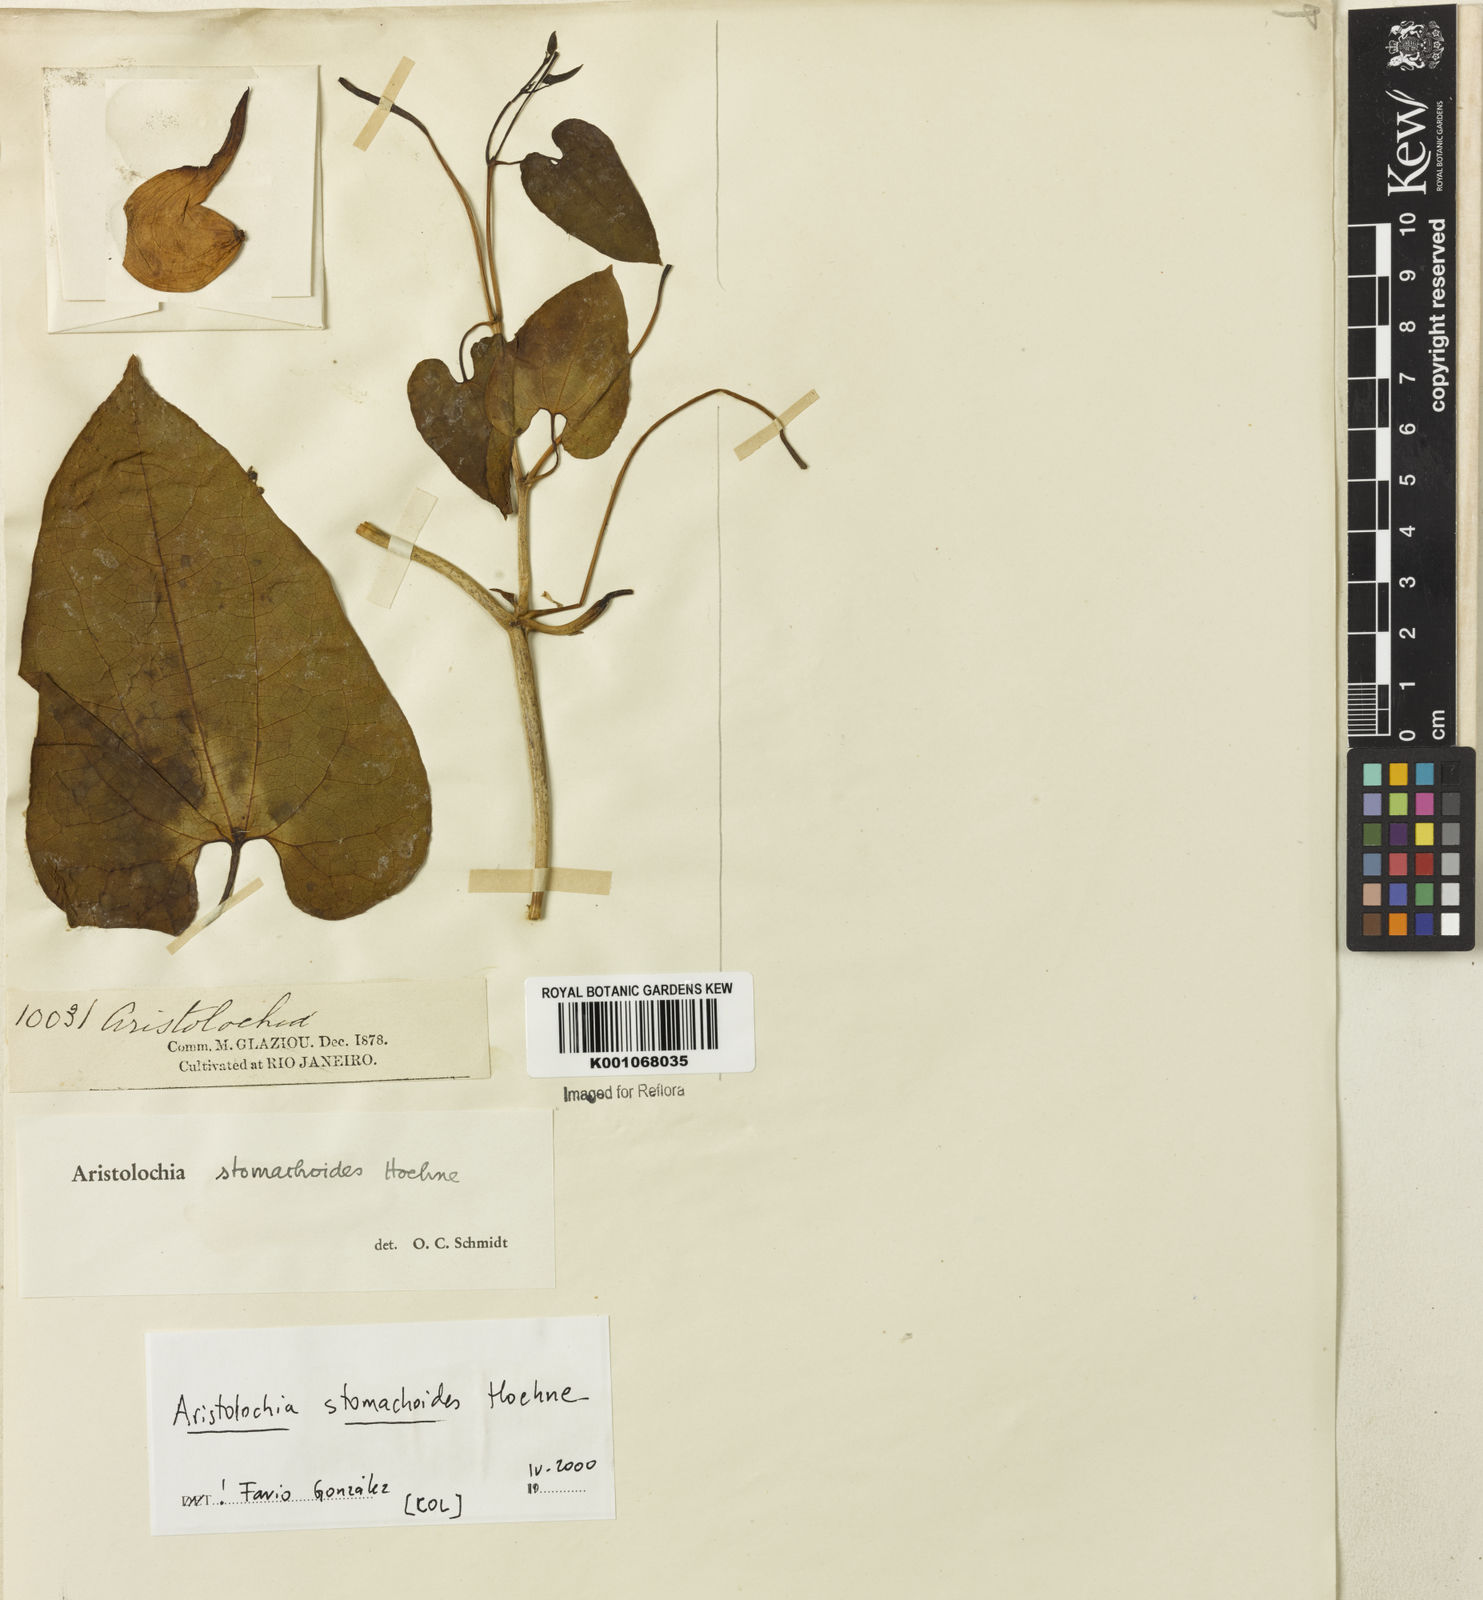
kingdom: Plantae
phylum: Tracheophyta
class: Magnoliopsida
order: Piperales
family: Aristolochiaceae
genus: Aristolochia
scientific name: Aristolochia
